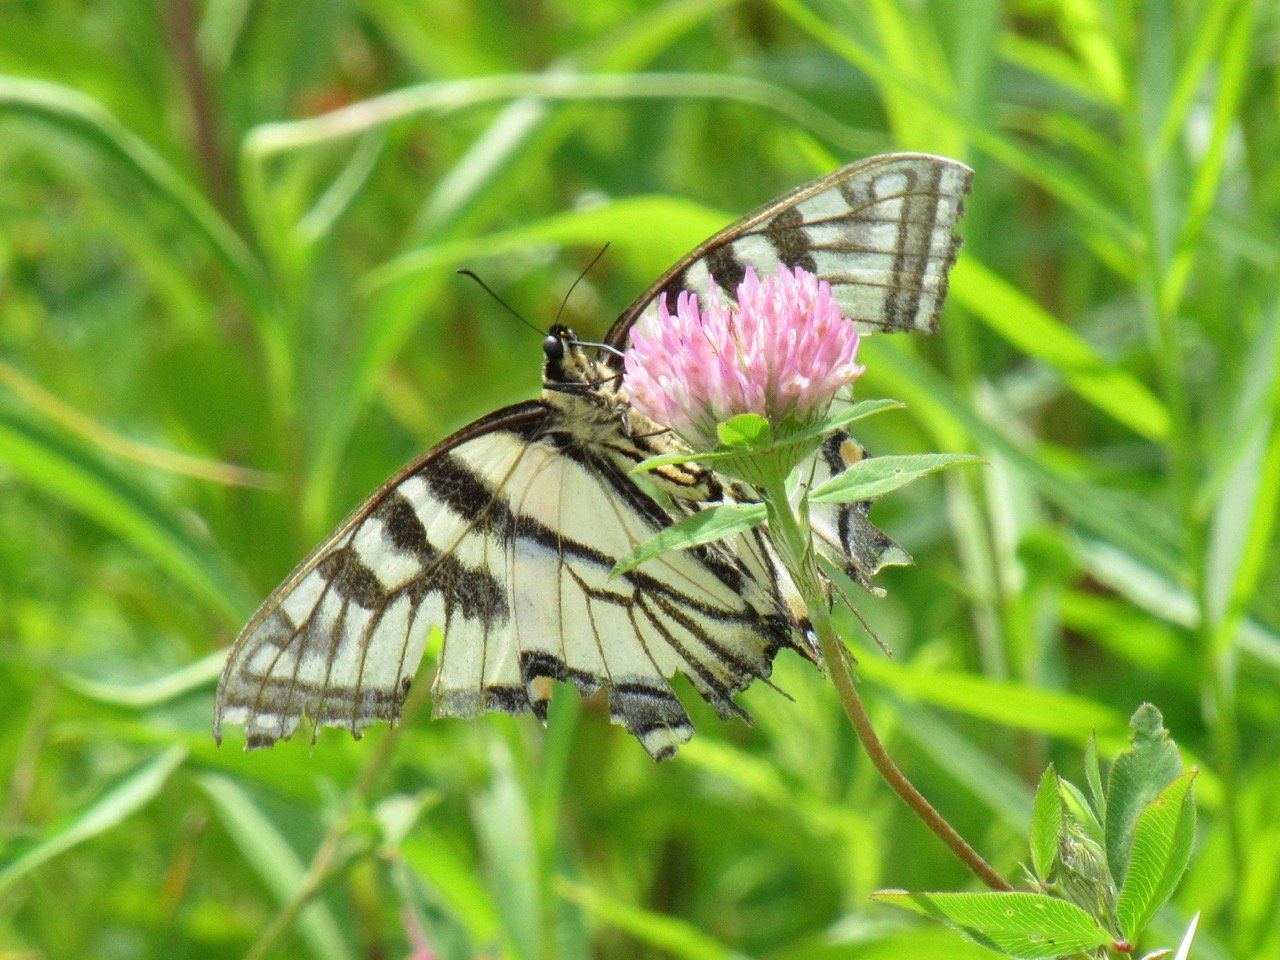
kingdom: Animalia
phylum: Arthropoda
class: Insecta
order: Lepidoptera
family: Papilionidae
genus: Pterourus
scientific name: Pterourus
